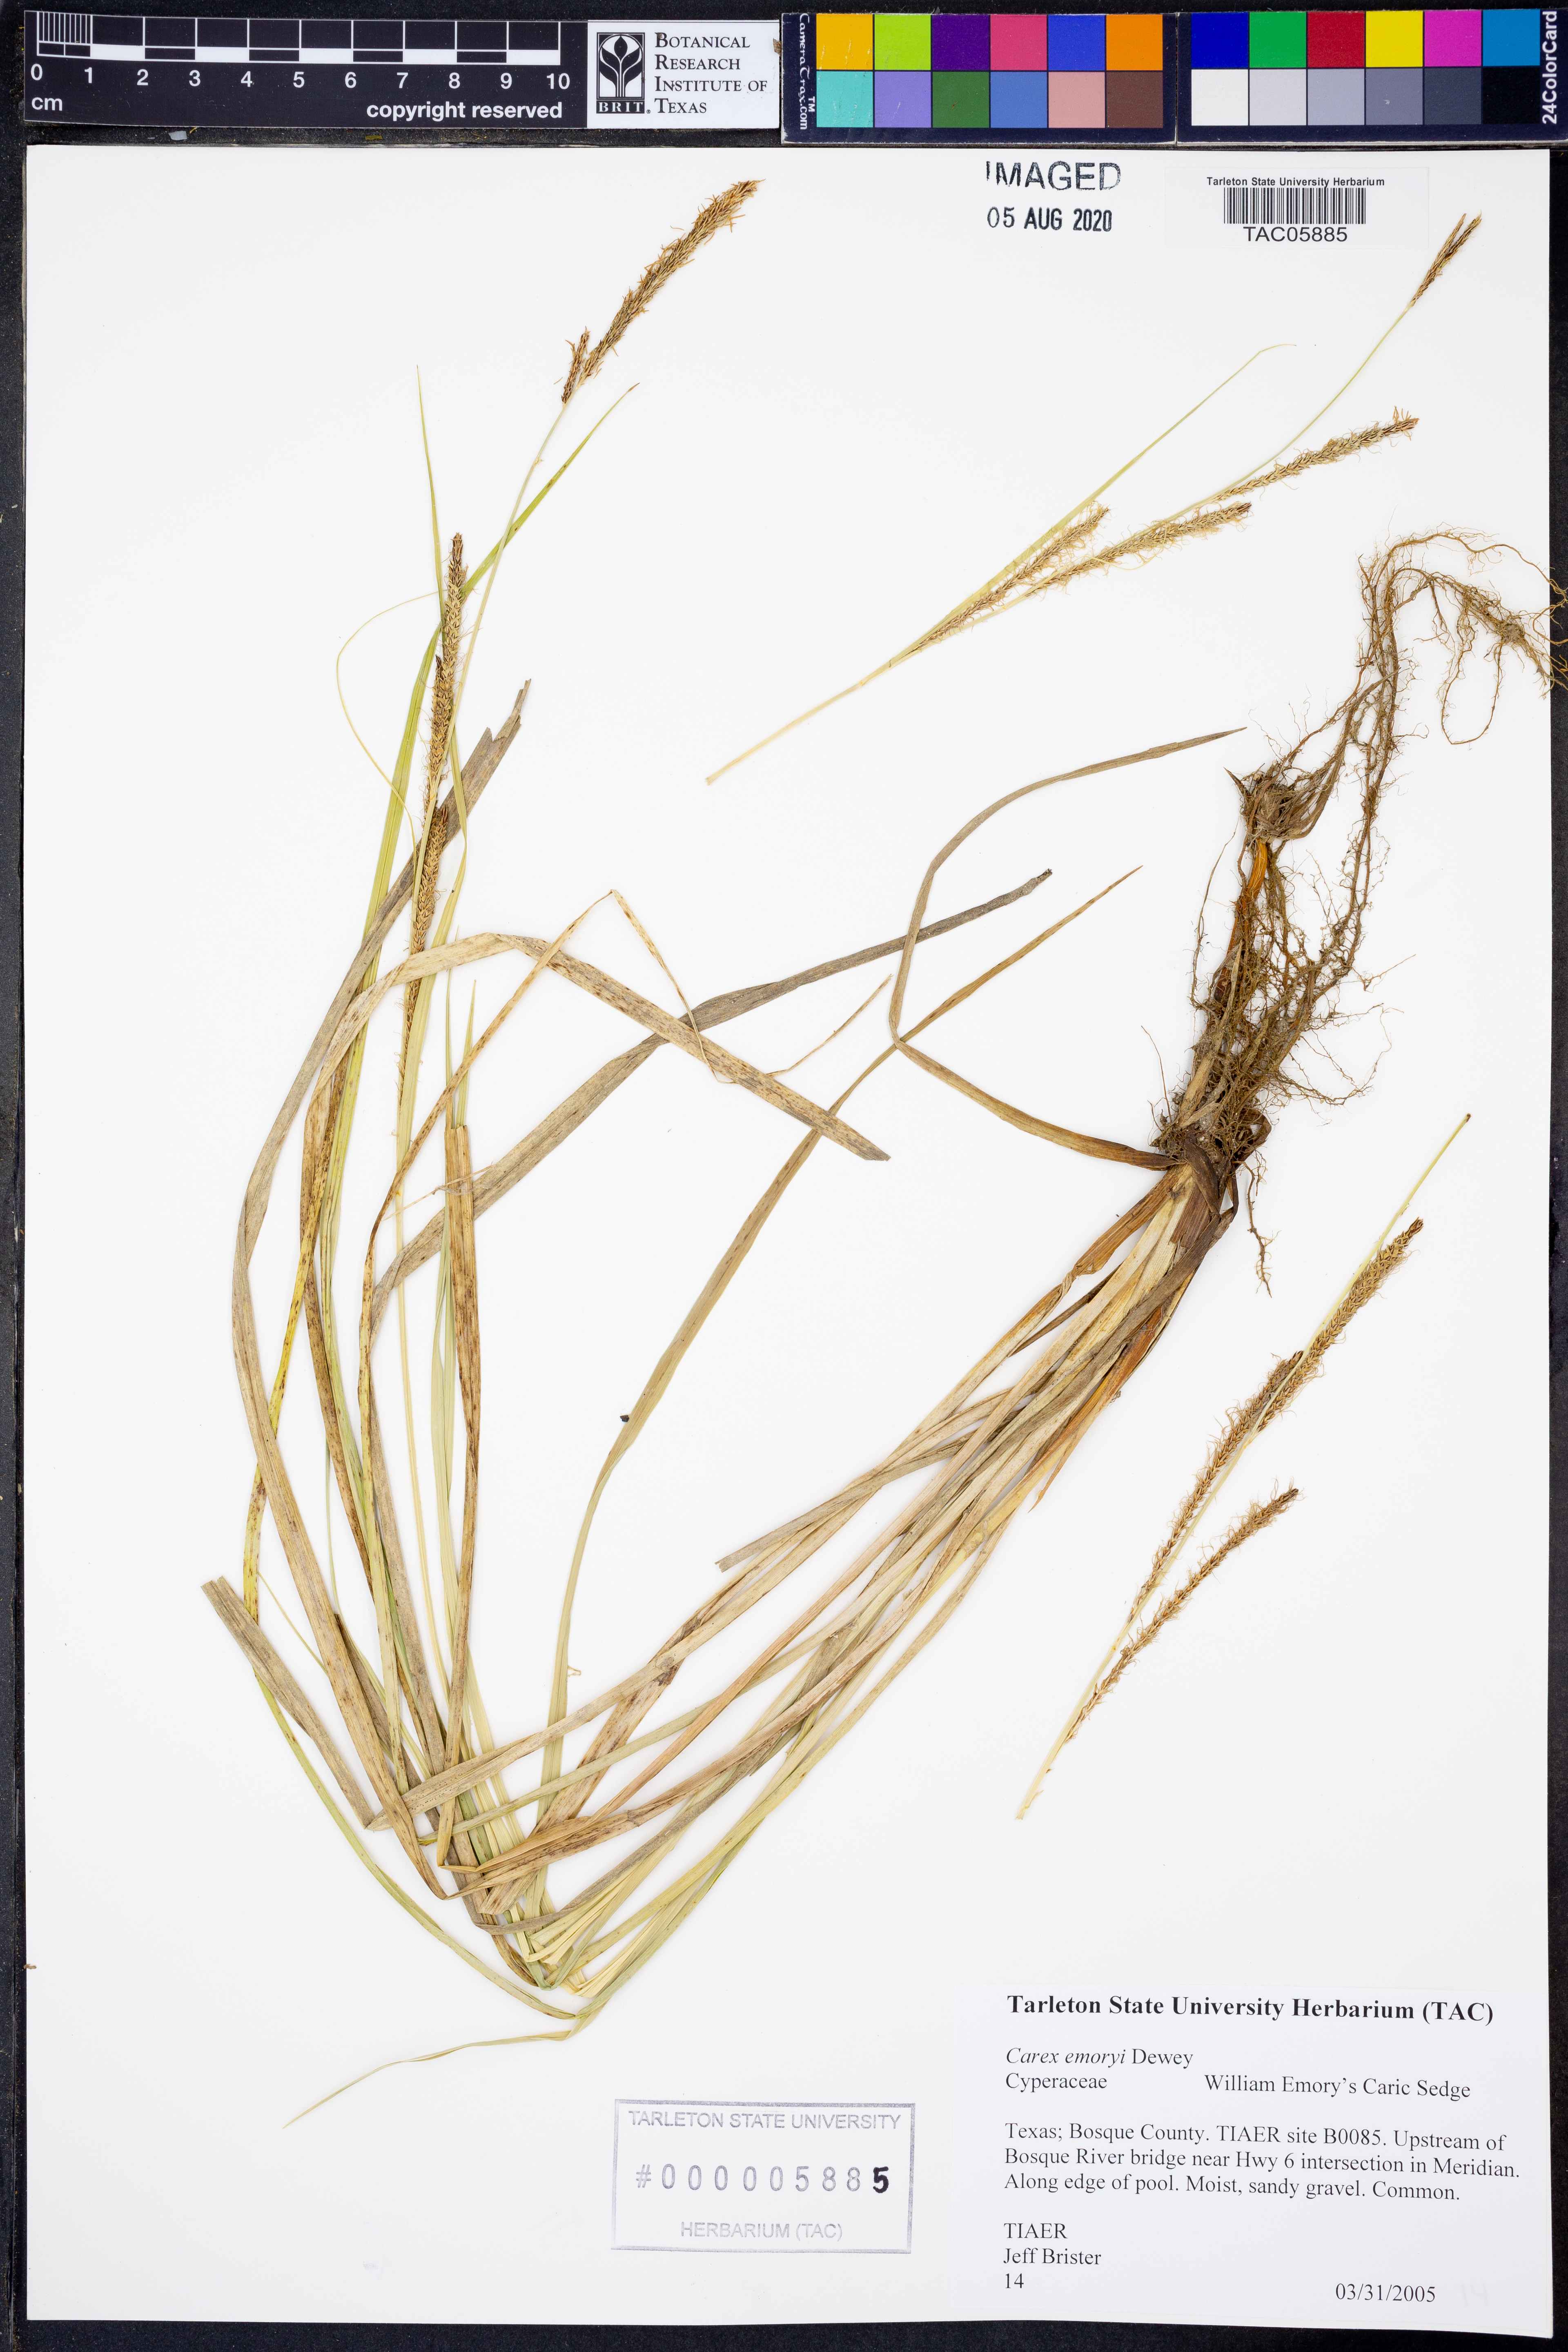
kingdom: Plantae
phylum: Tracheophyta
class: Liliopsida
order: Poales
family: Cyperaceae
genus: Carex
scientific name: Carex emoryi
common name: Emory's sedge
